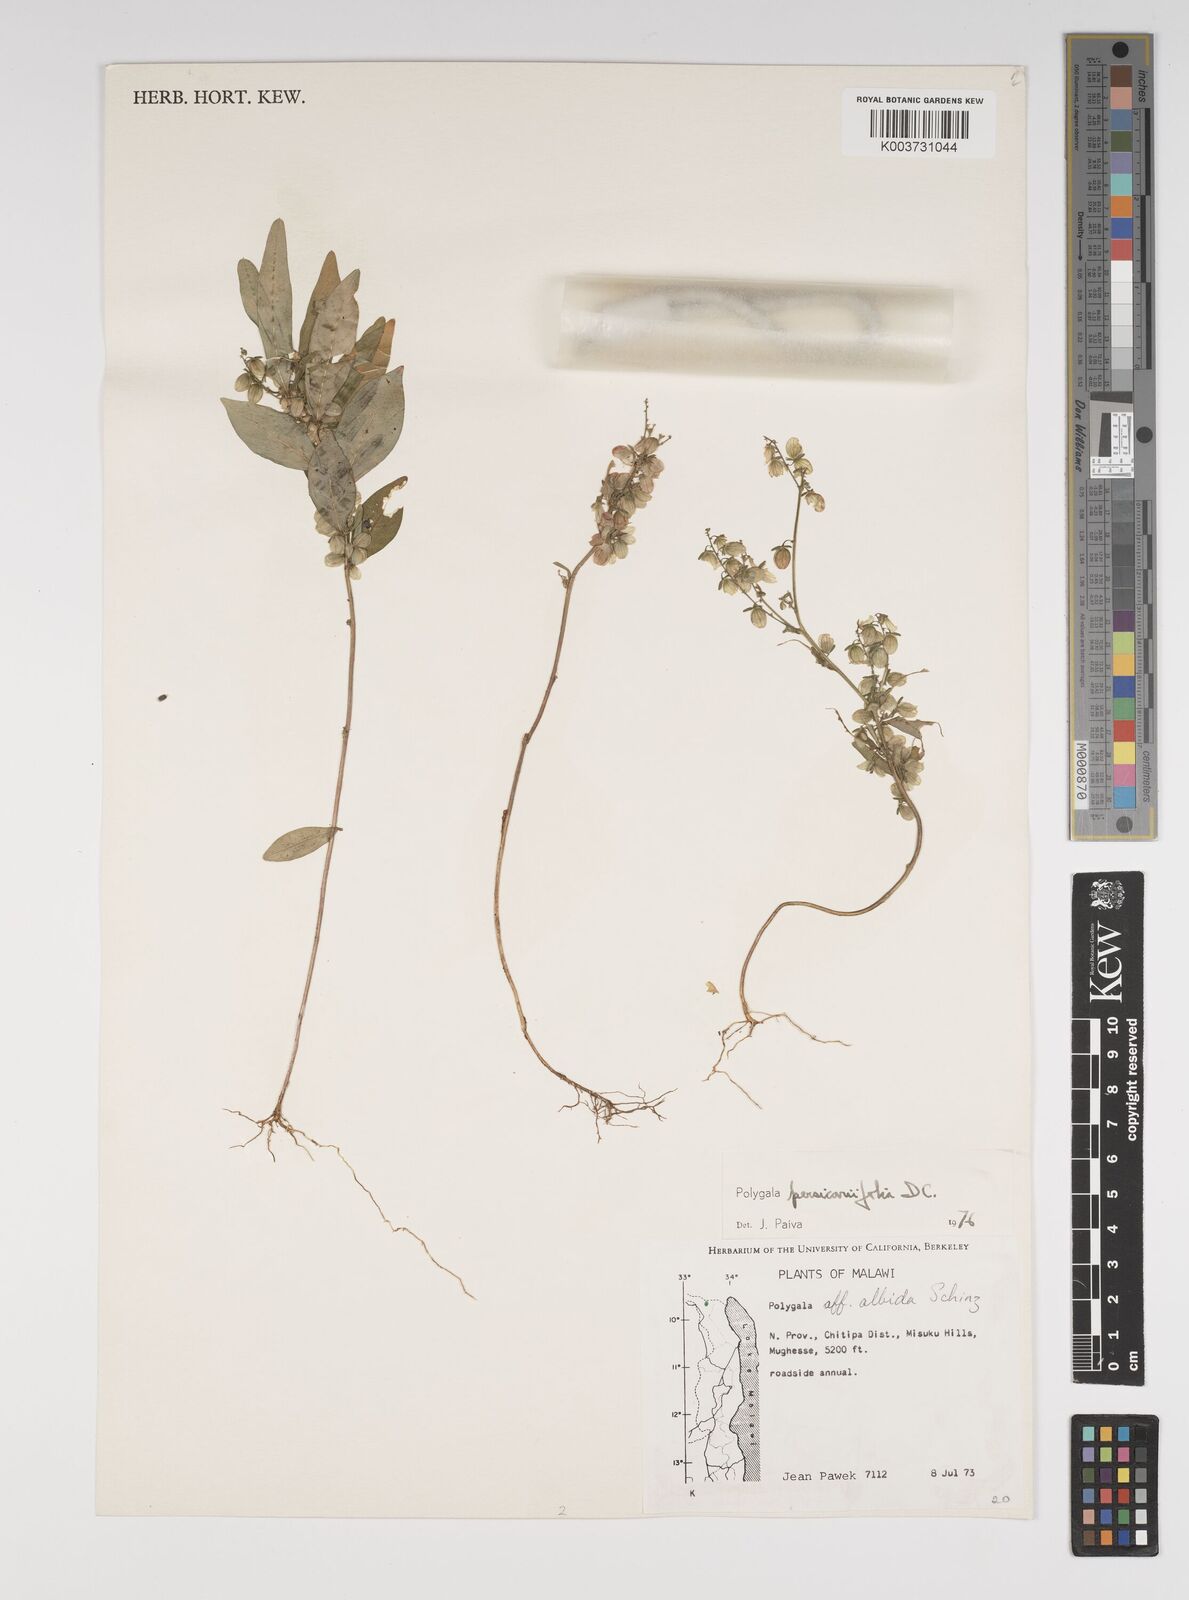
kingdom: Plantae
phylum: Tracheophyta
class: Magnoliopsida
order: Fabales
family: Polygalaceae
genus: Polygala
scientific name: Polygala persicariifolia
